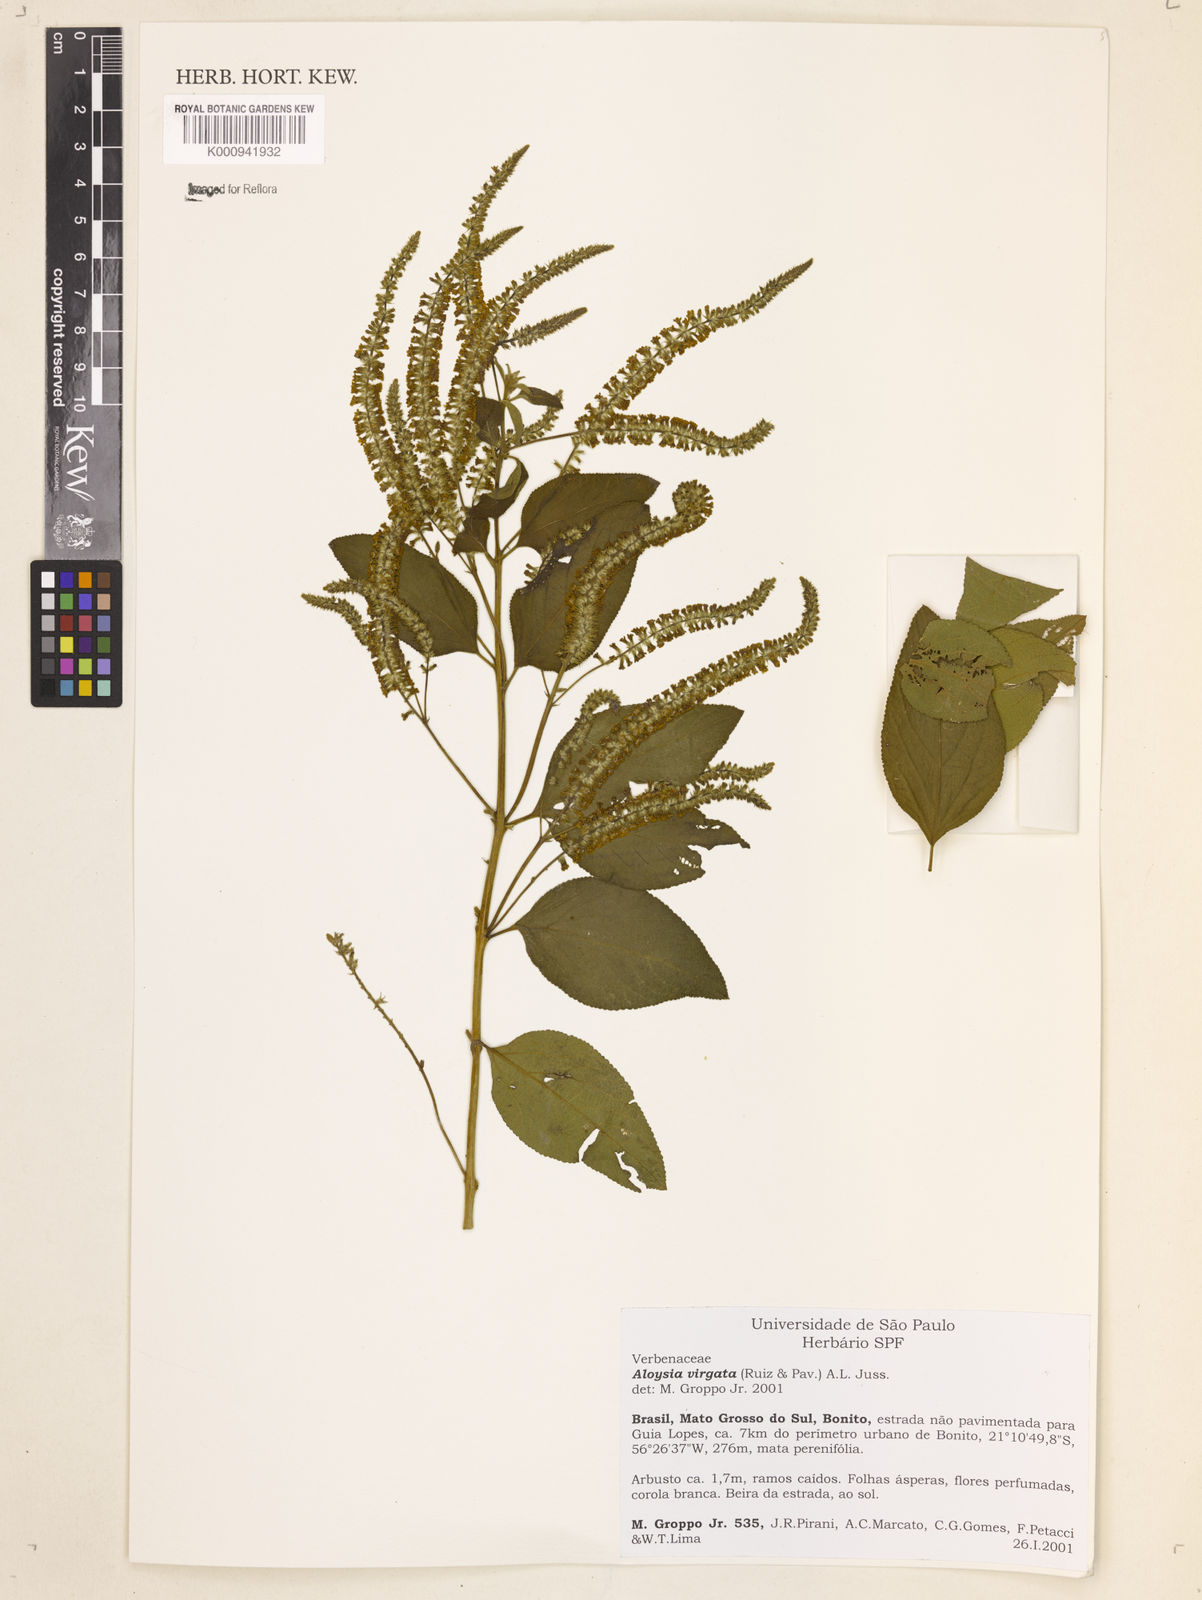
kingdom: Plantae
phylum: Tracheophyta
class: Magnoliopsida
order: Lamiales
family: Verbenaceae
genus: Aloysia
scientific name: Aloysia
